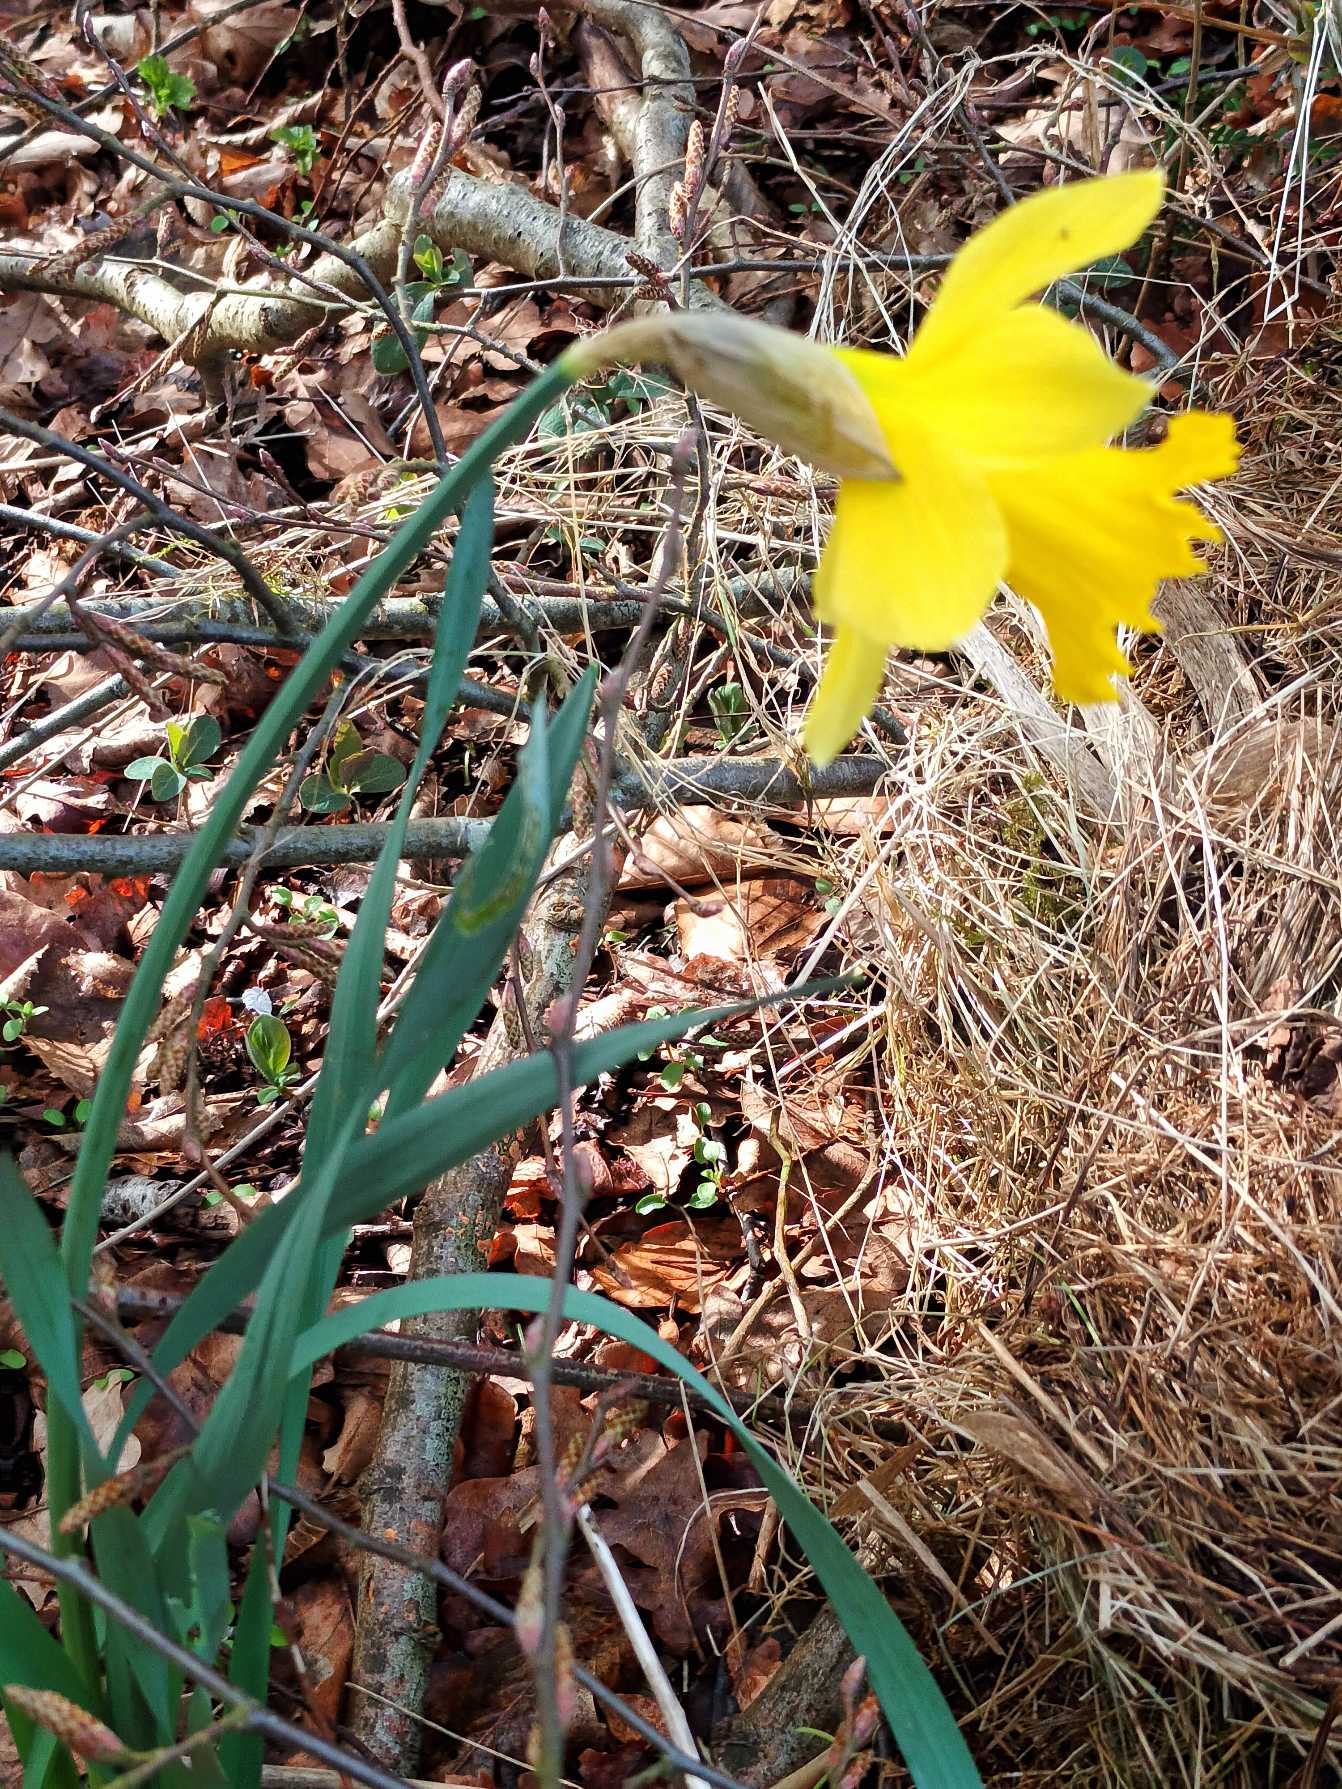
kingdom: Plantae
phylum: Tracheophyta
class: Liliopsida
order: Asparagales
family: Amaryllidaceae
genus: Narcissus
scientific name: Narcissus pseudonarcissus
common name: Påskelilje
